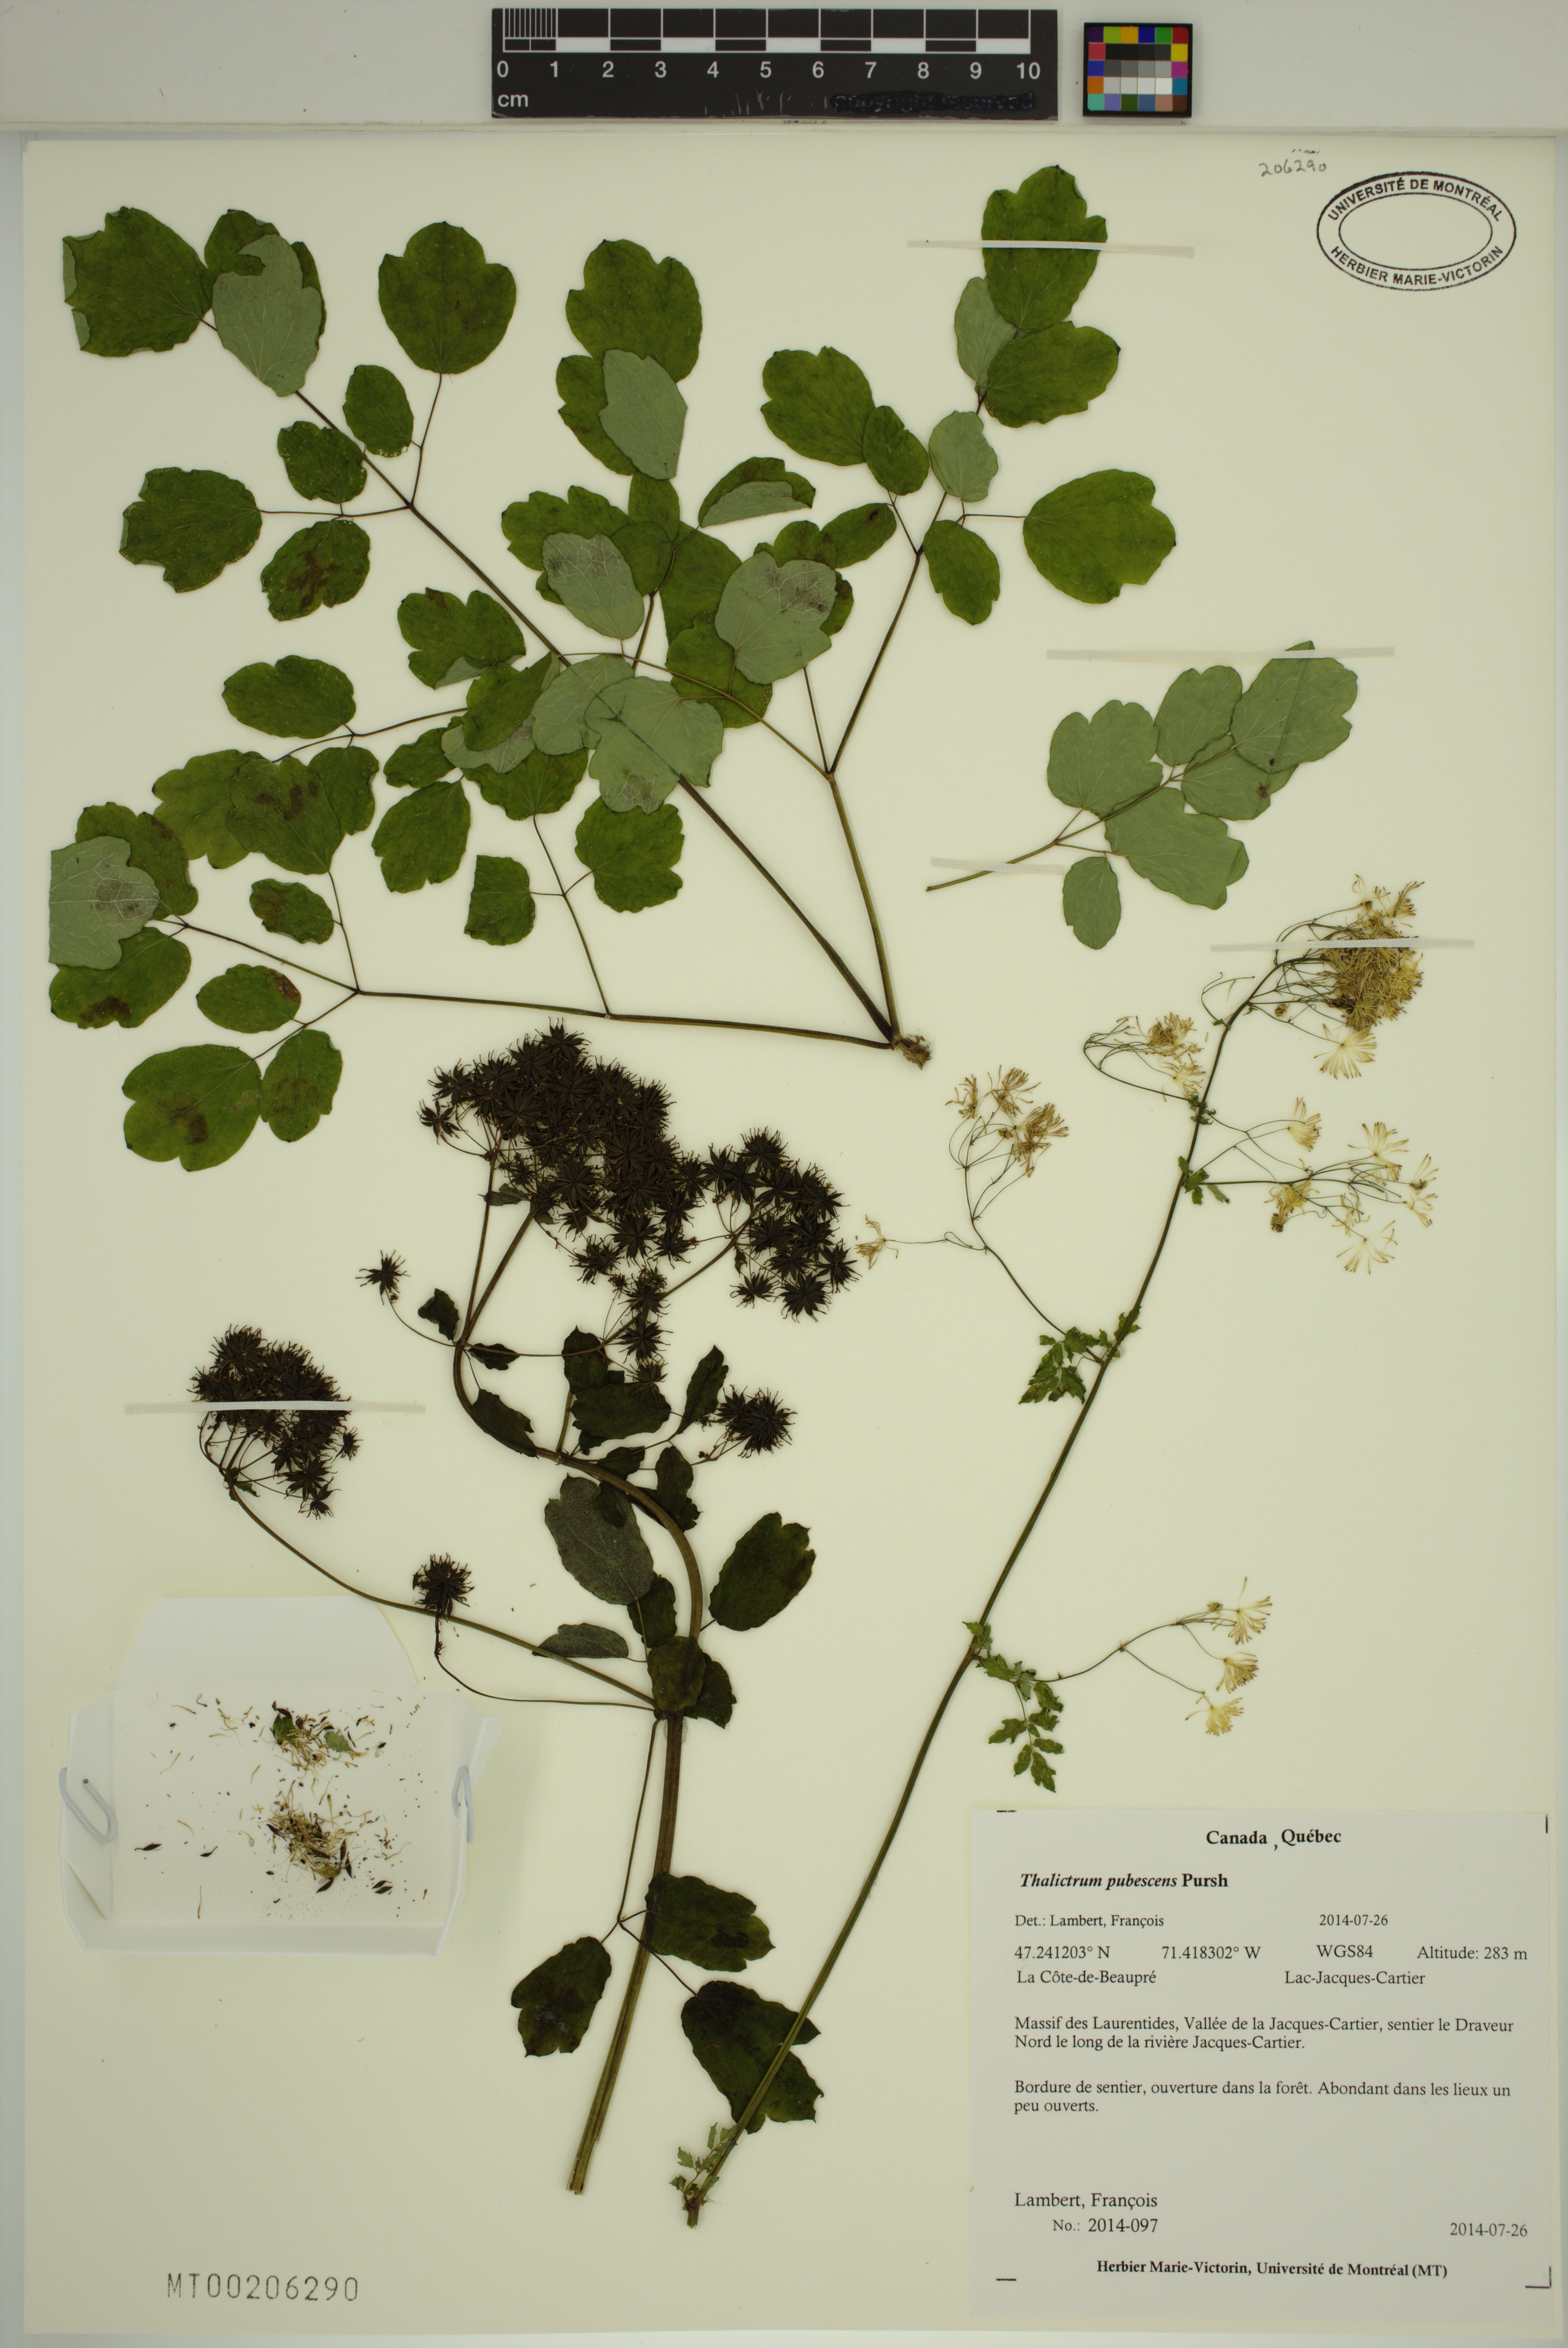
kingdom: Plantae
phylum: Tracheophyta
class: Magnoliopsida
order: Ranunculales
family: Ranunculaceae
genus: Thalictrum
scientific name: Thalictrum pubescens
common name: King-of-the-meadow
